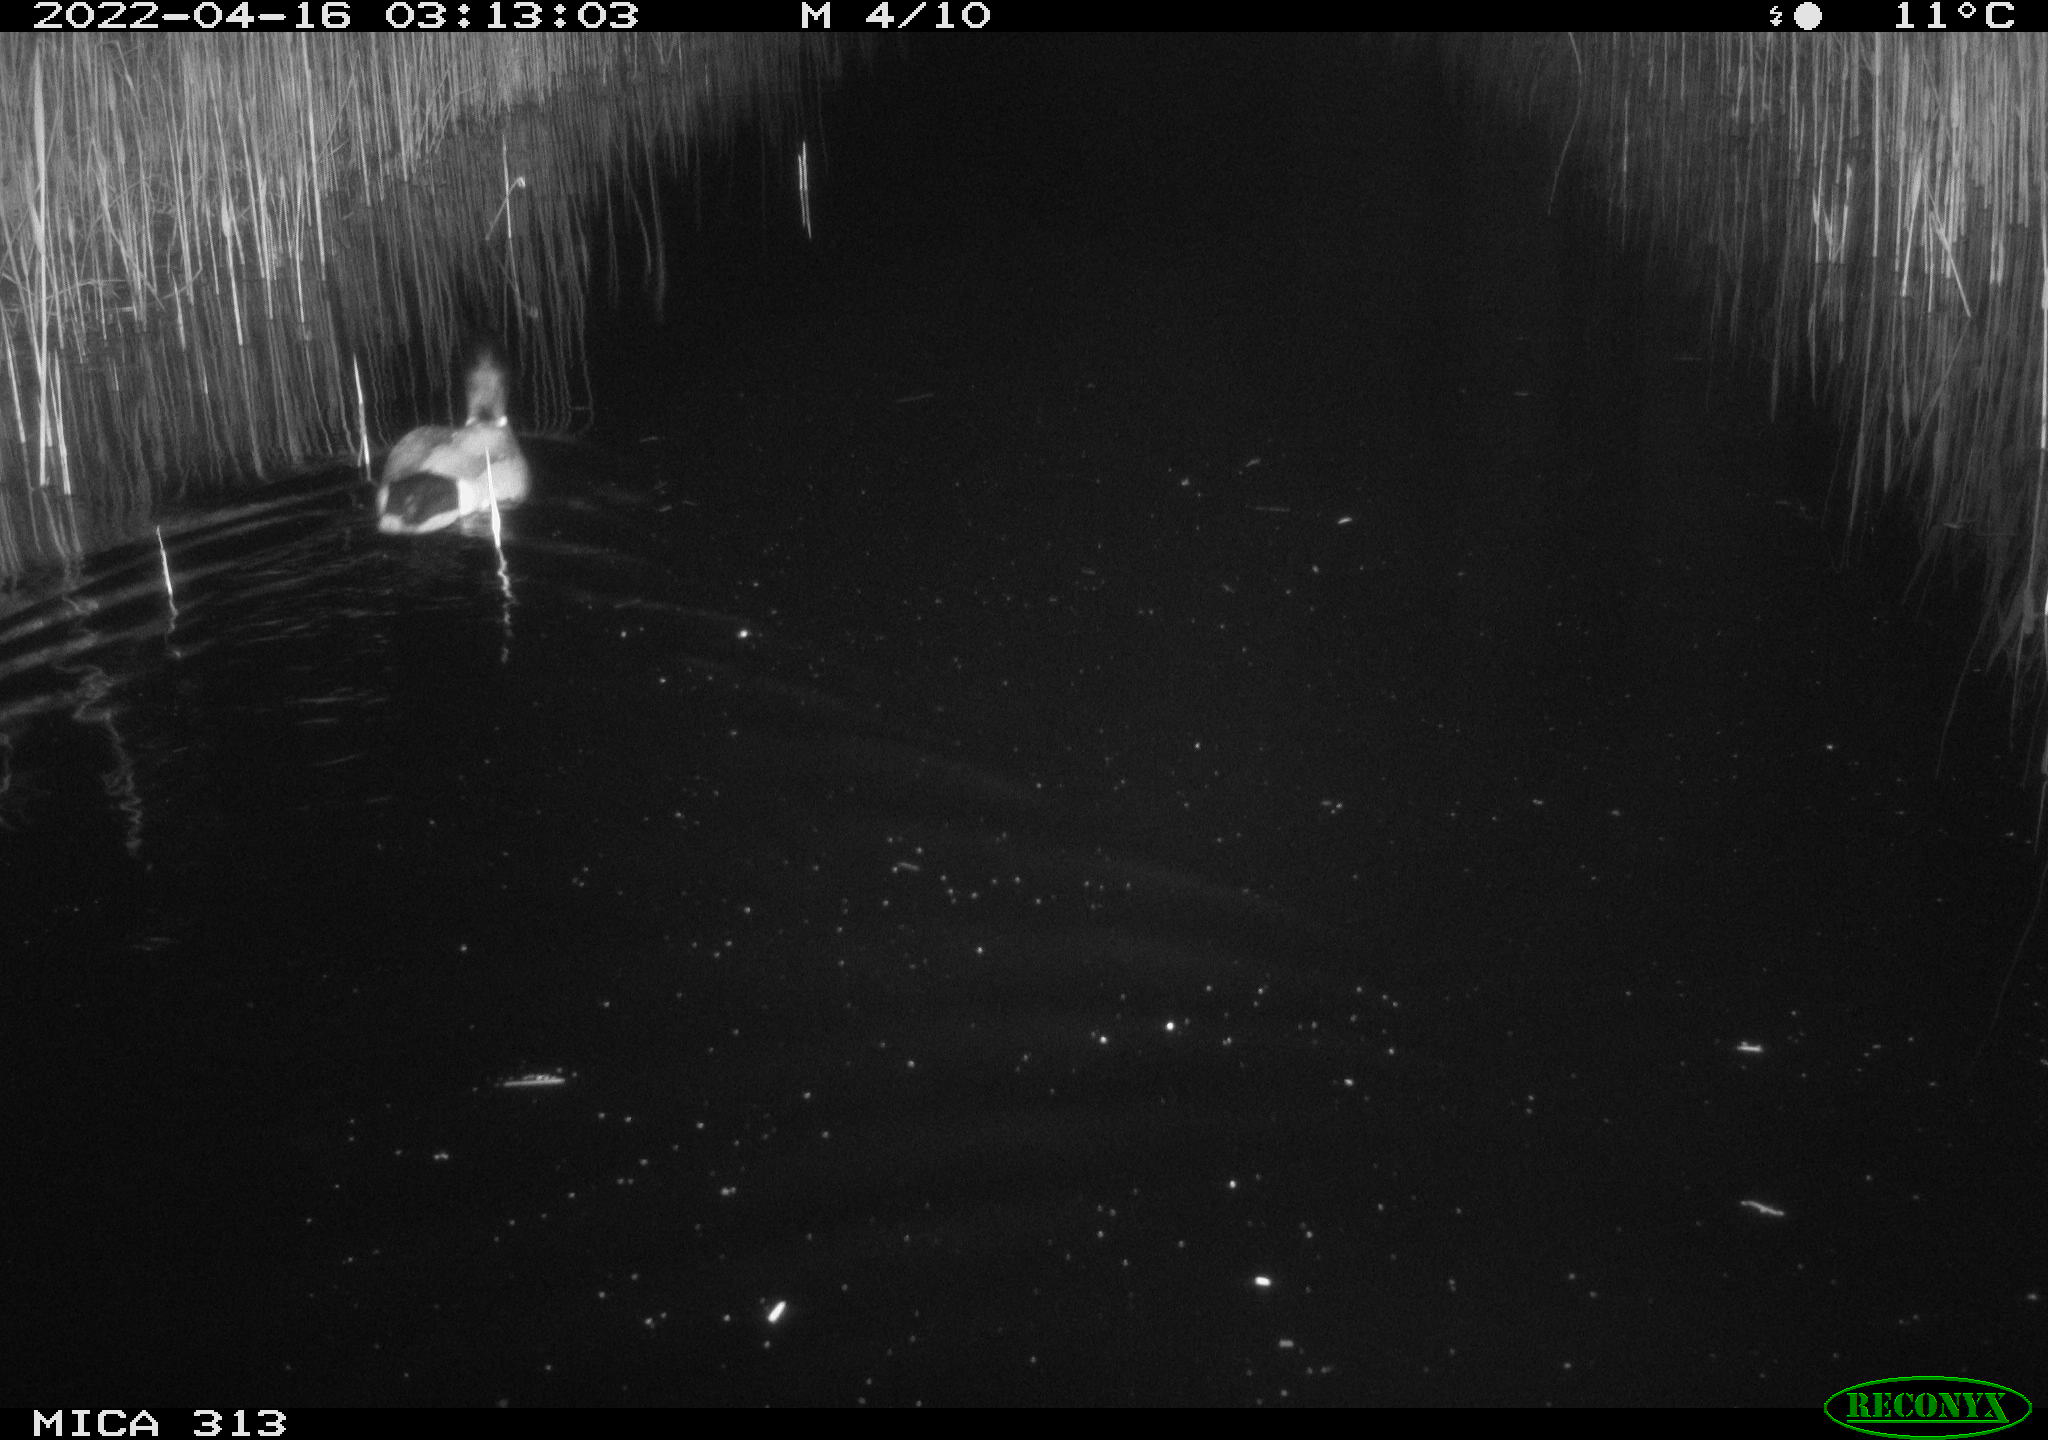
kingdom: Animalia
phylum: Chordata
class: Aves
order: Anseriformes
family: Anatidae
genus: Anas
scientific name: Anas platyrhynchos
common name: Mallard
